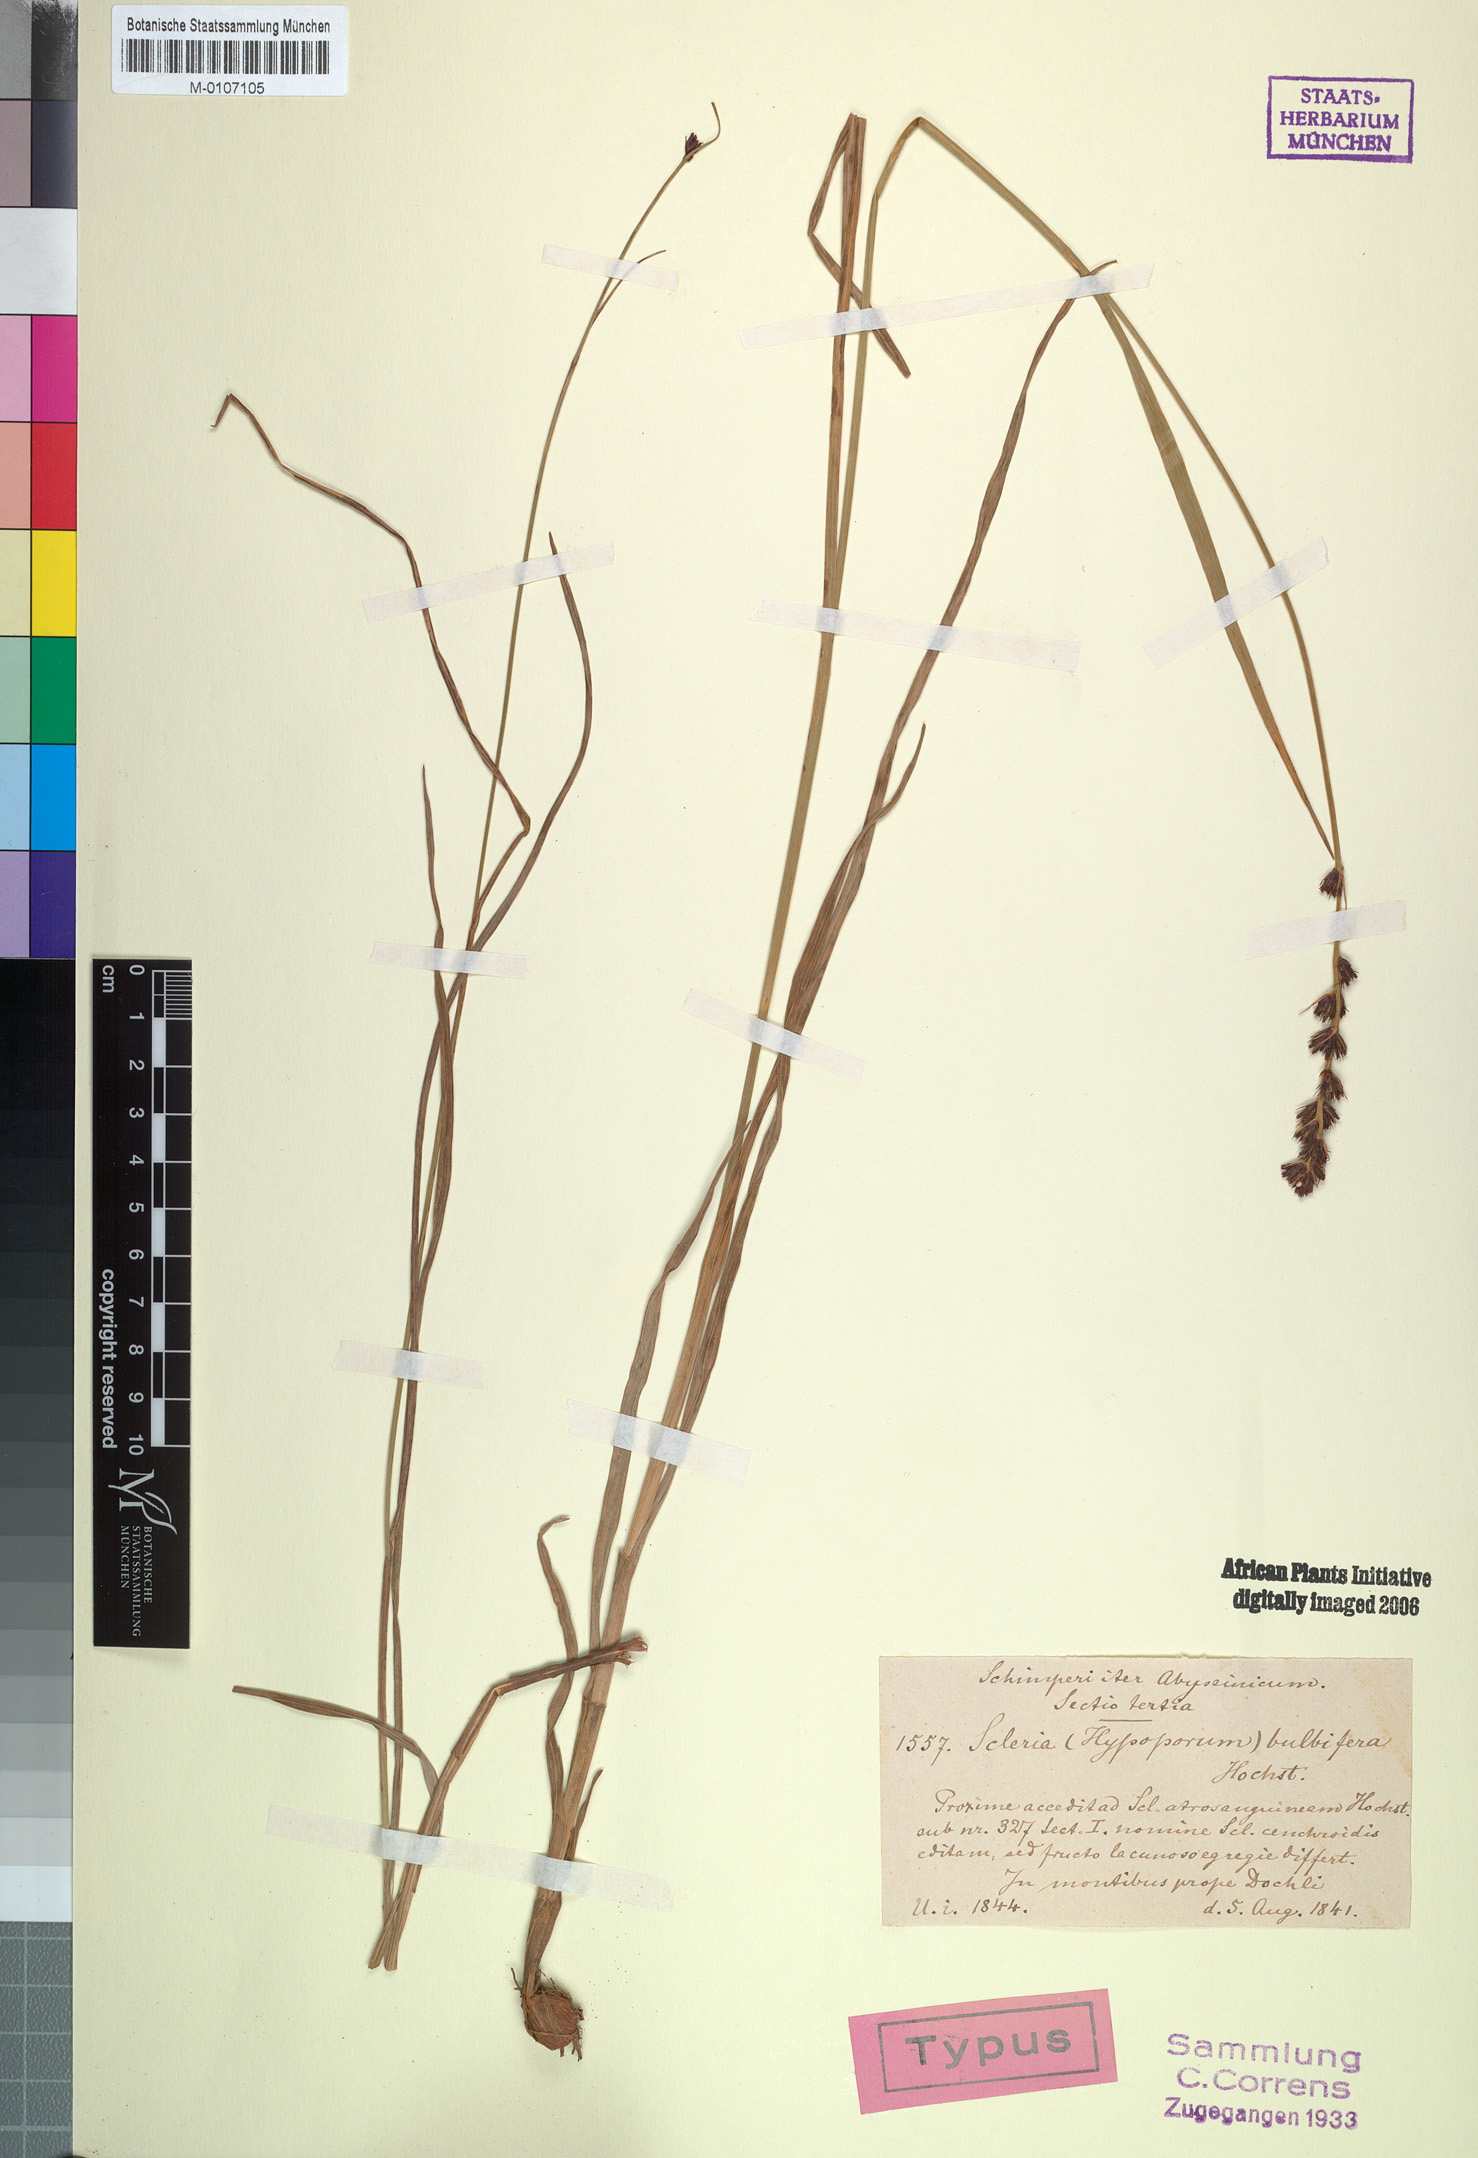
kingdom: Plantae
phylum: Tracheophyta
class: Liliopsida
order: Poales
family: Cyperaceae
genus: Scleria
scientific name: Scleria bulbifera
